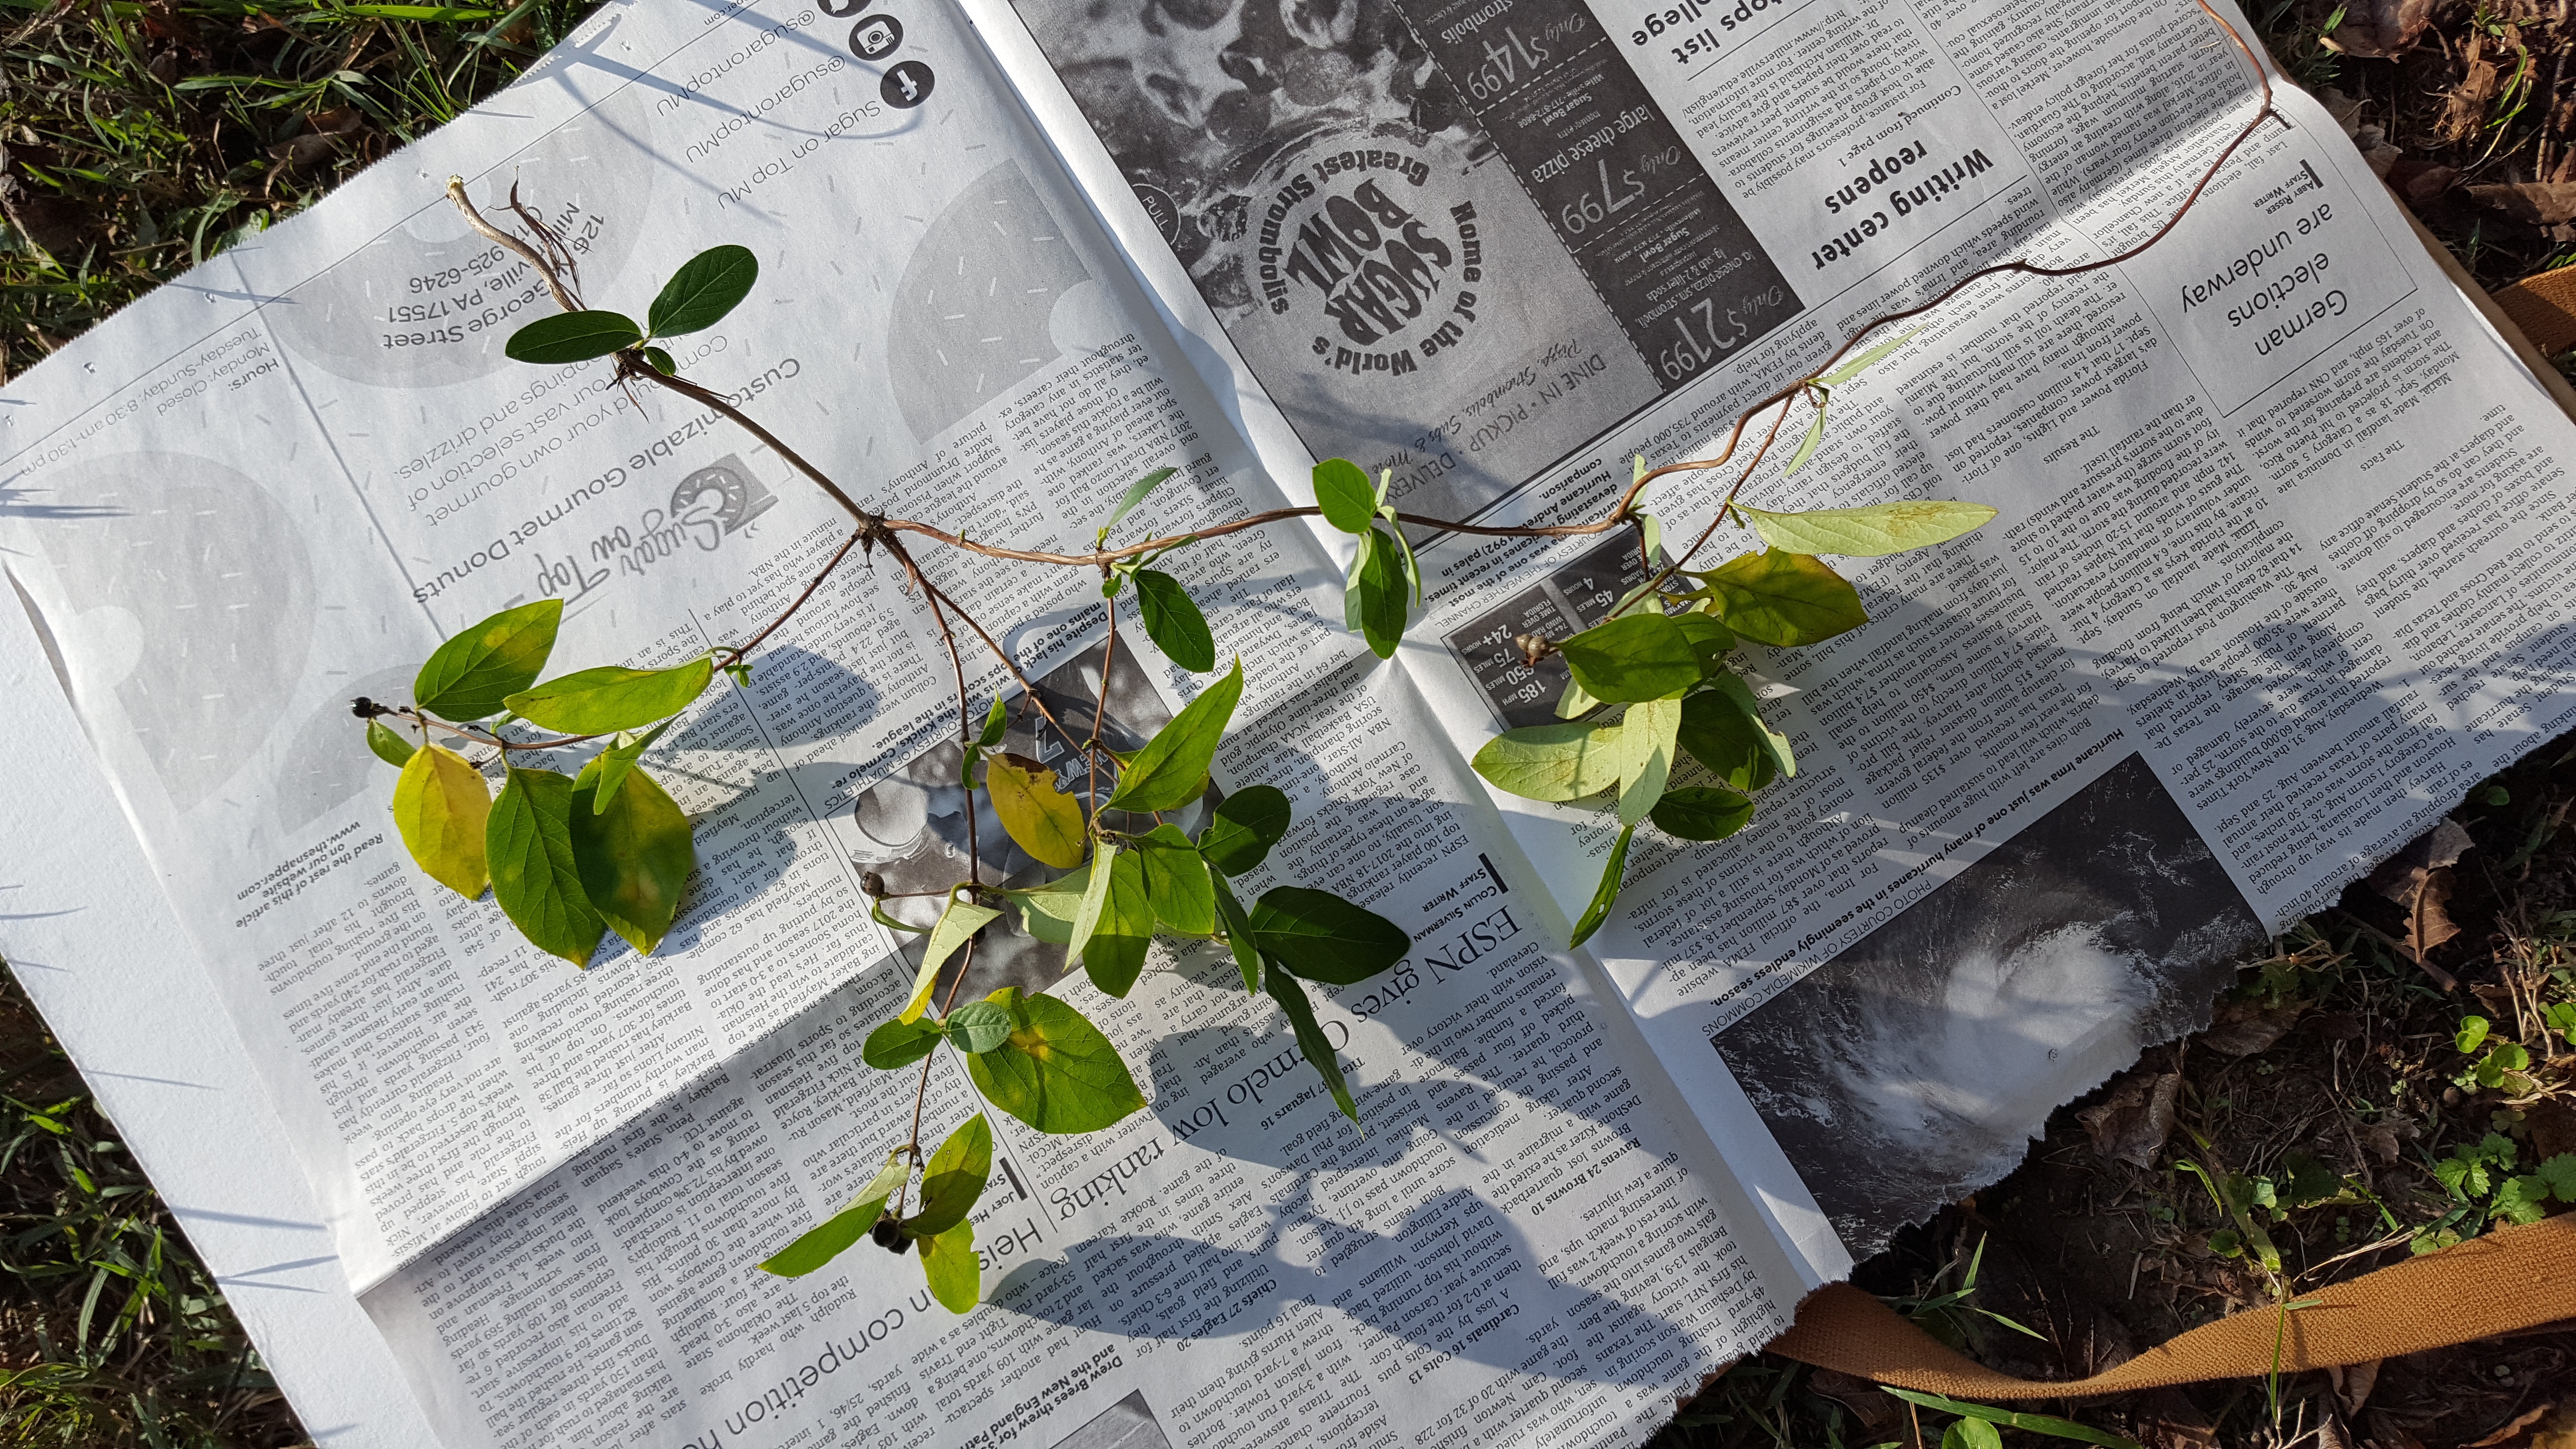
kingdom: Plantae
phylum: Tracheophyta
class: Magnoliopsida
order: Dipsacales
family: Caprifoliaceae
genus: Lonicera
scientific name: Lonicera japonica
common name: Japanese honeysuckle
